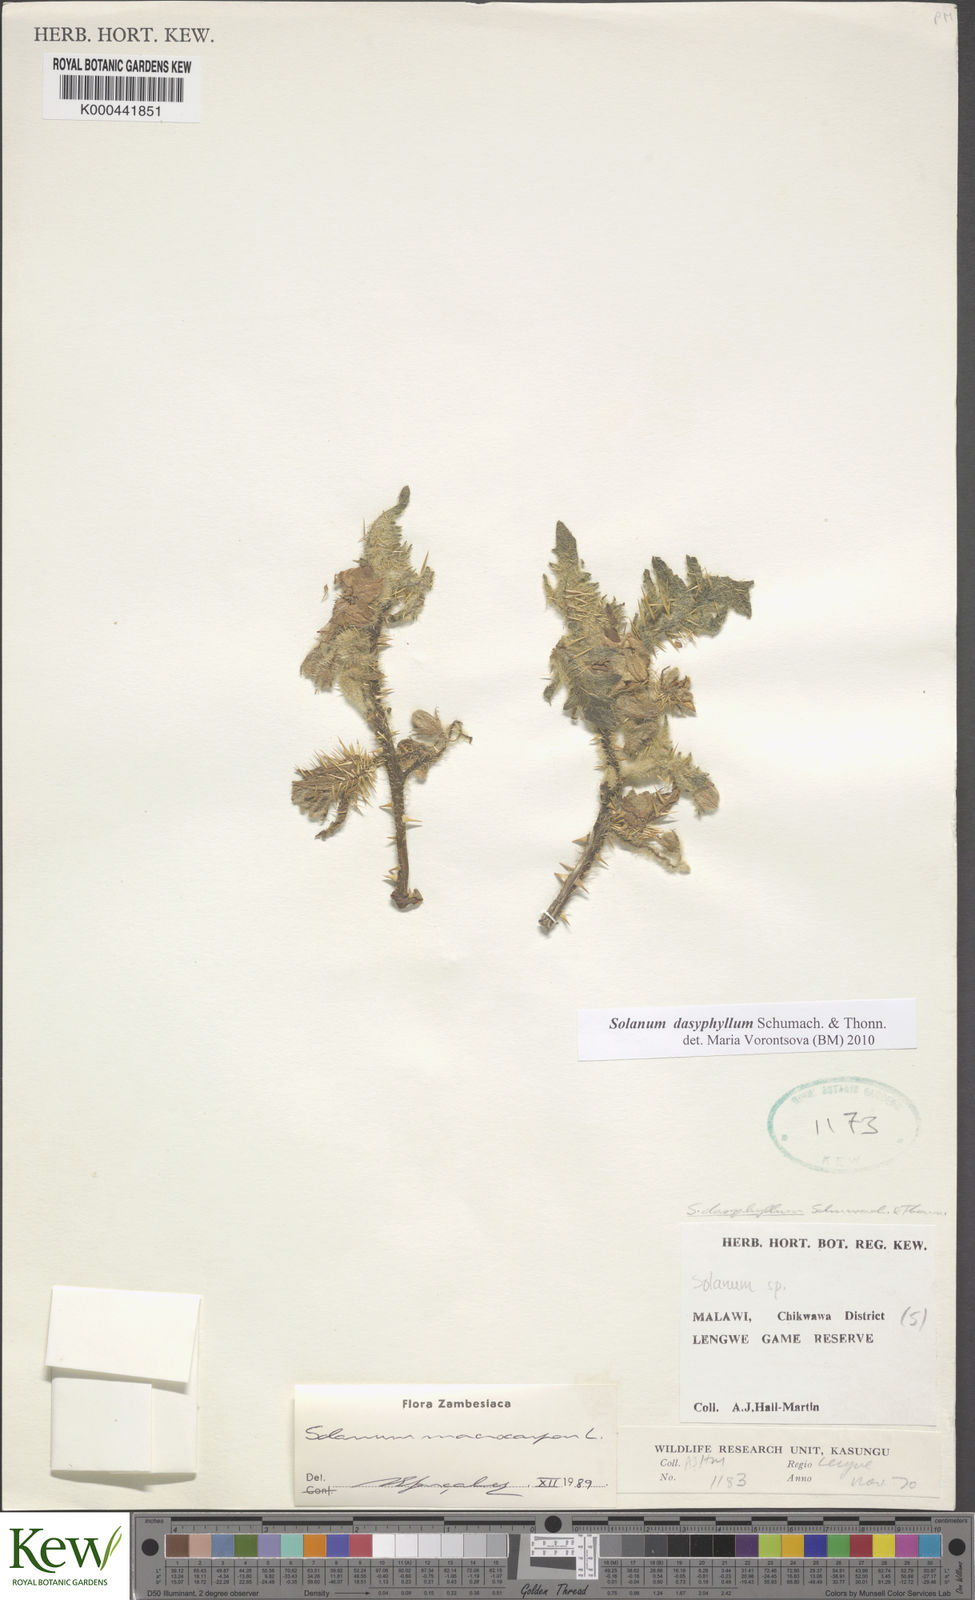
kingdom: Plantae
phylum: Tracheophyta
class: Magnoliopsida
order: Solanales
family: Solanaceae
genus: Solanum
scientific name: Solanum dasyphyllum
